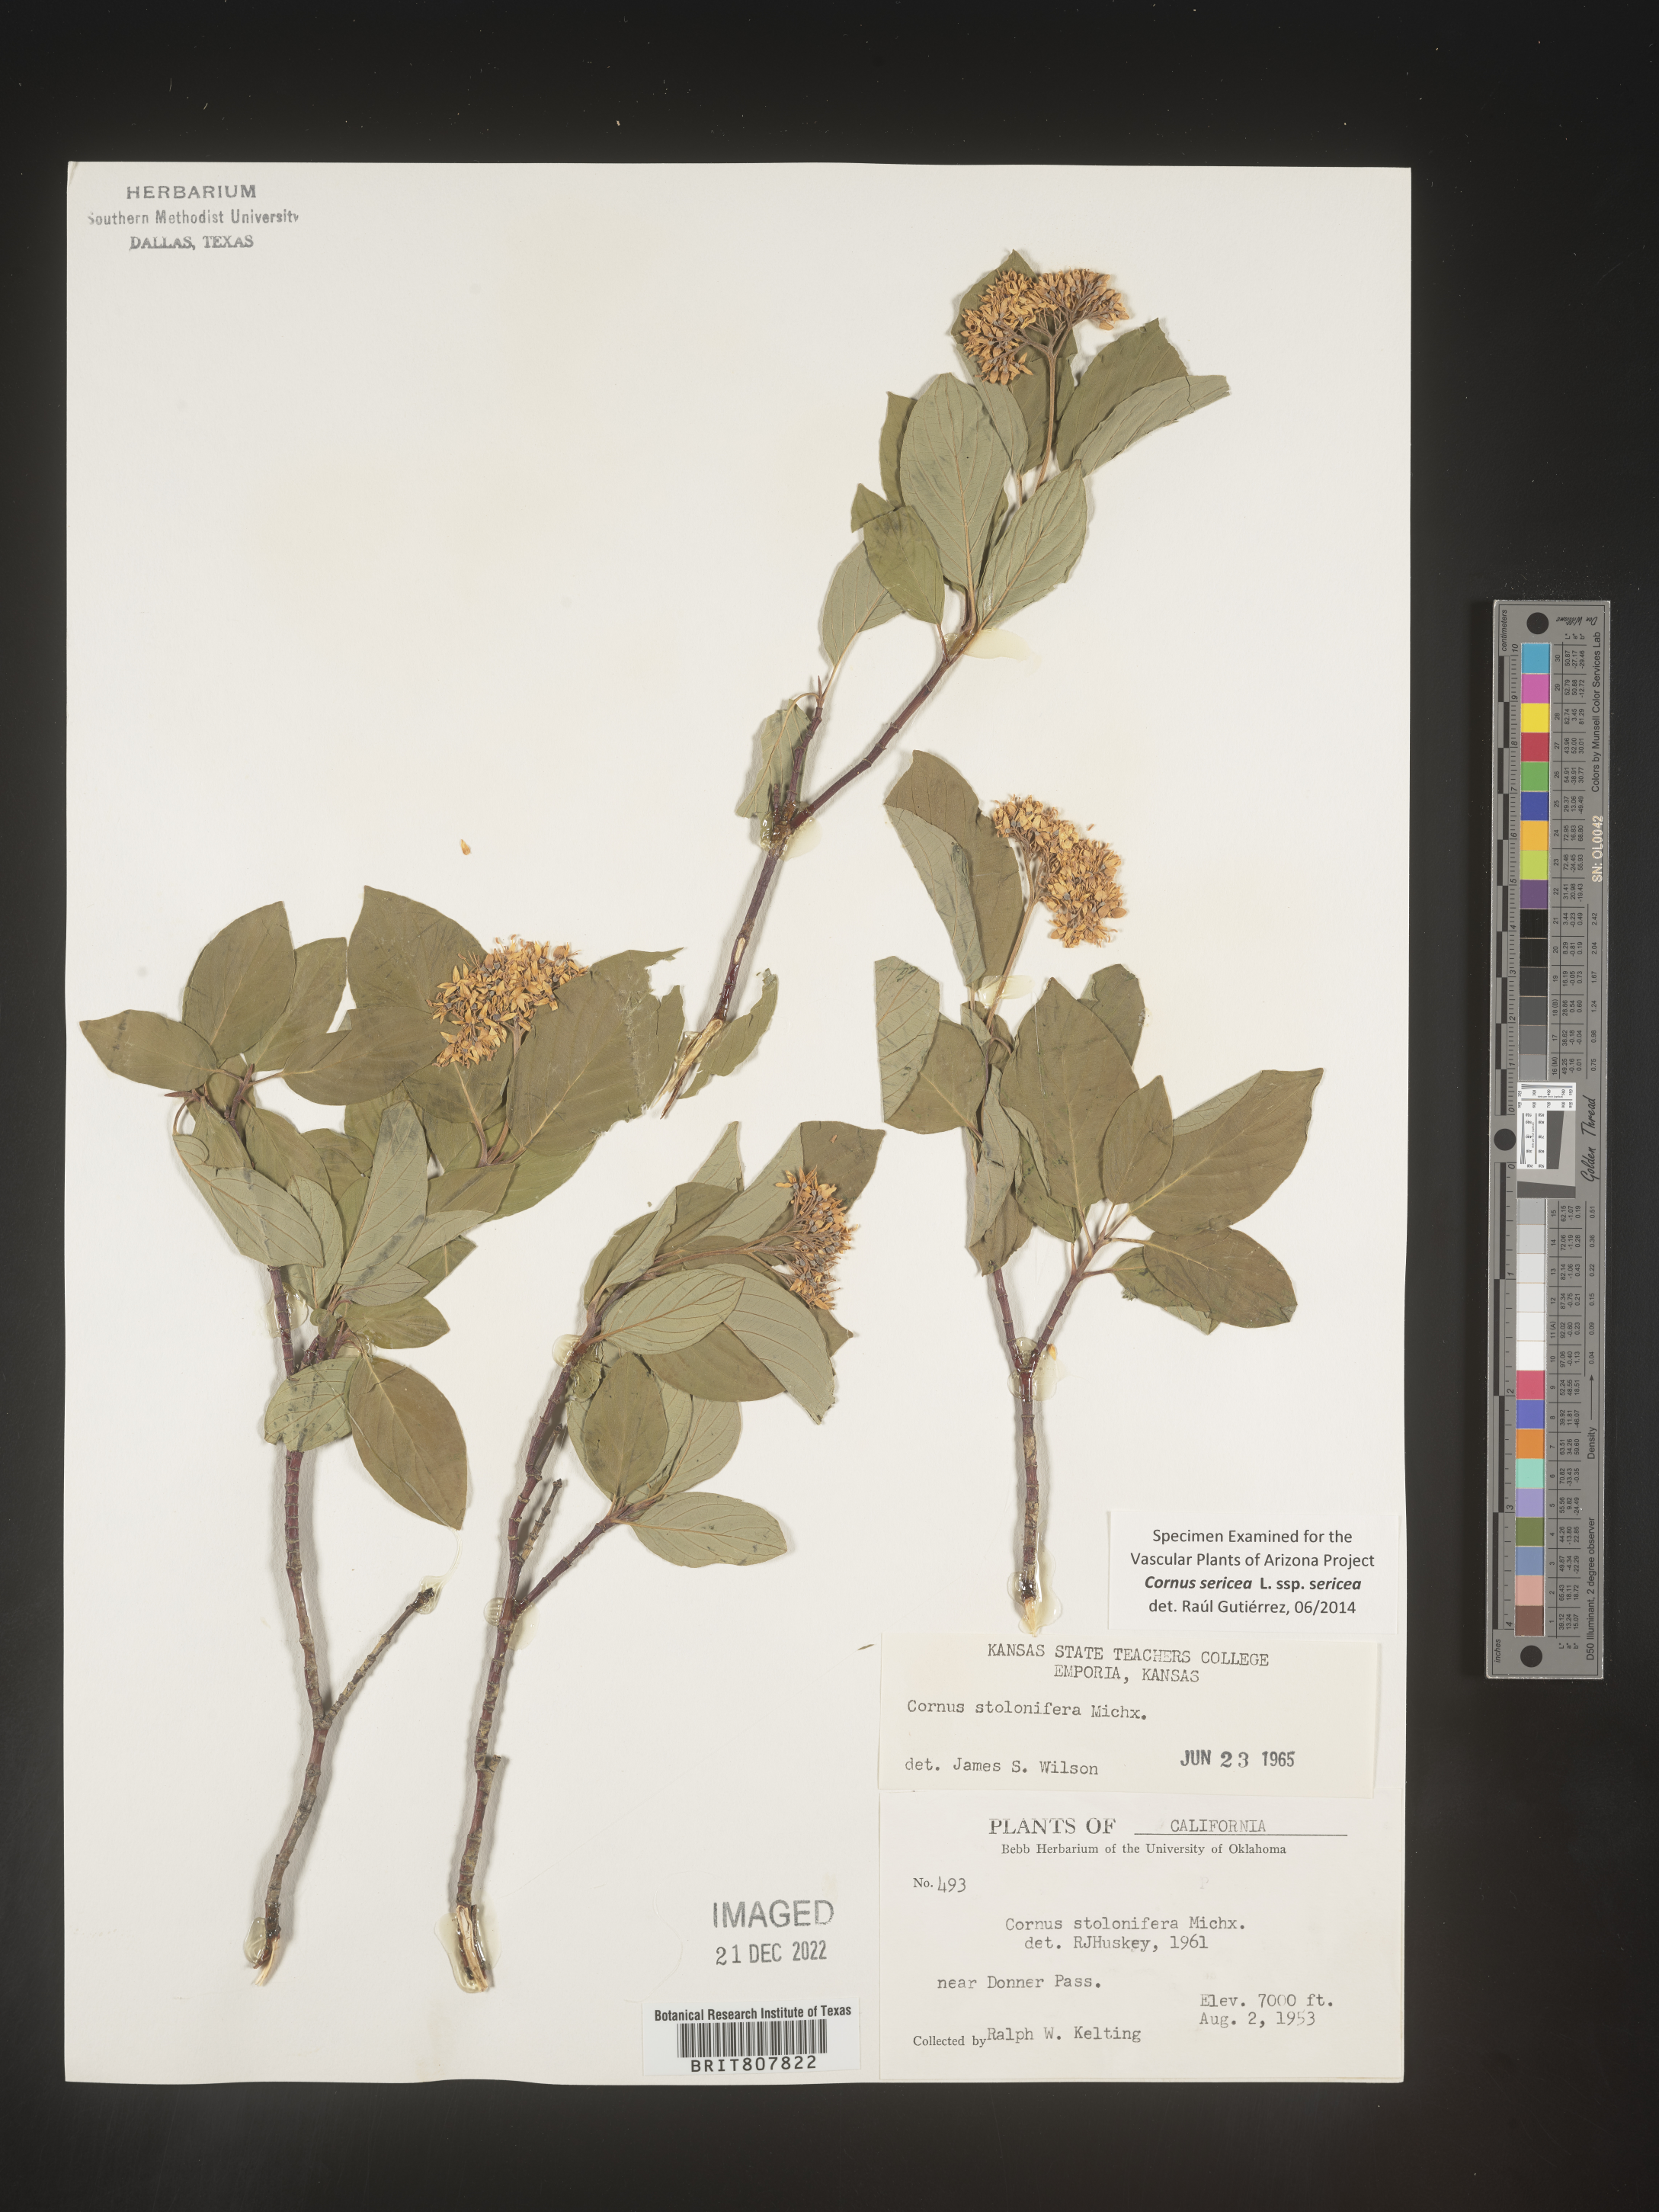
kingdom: Plantae
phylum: Tracheophyta
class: Magnoliopsida
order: Cornales
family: Cornaceae
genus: Cornus
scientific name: Cornus
